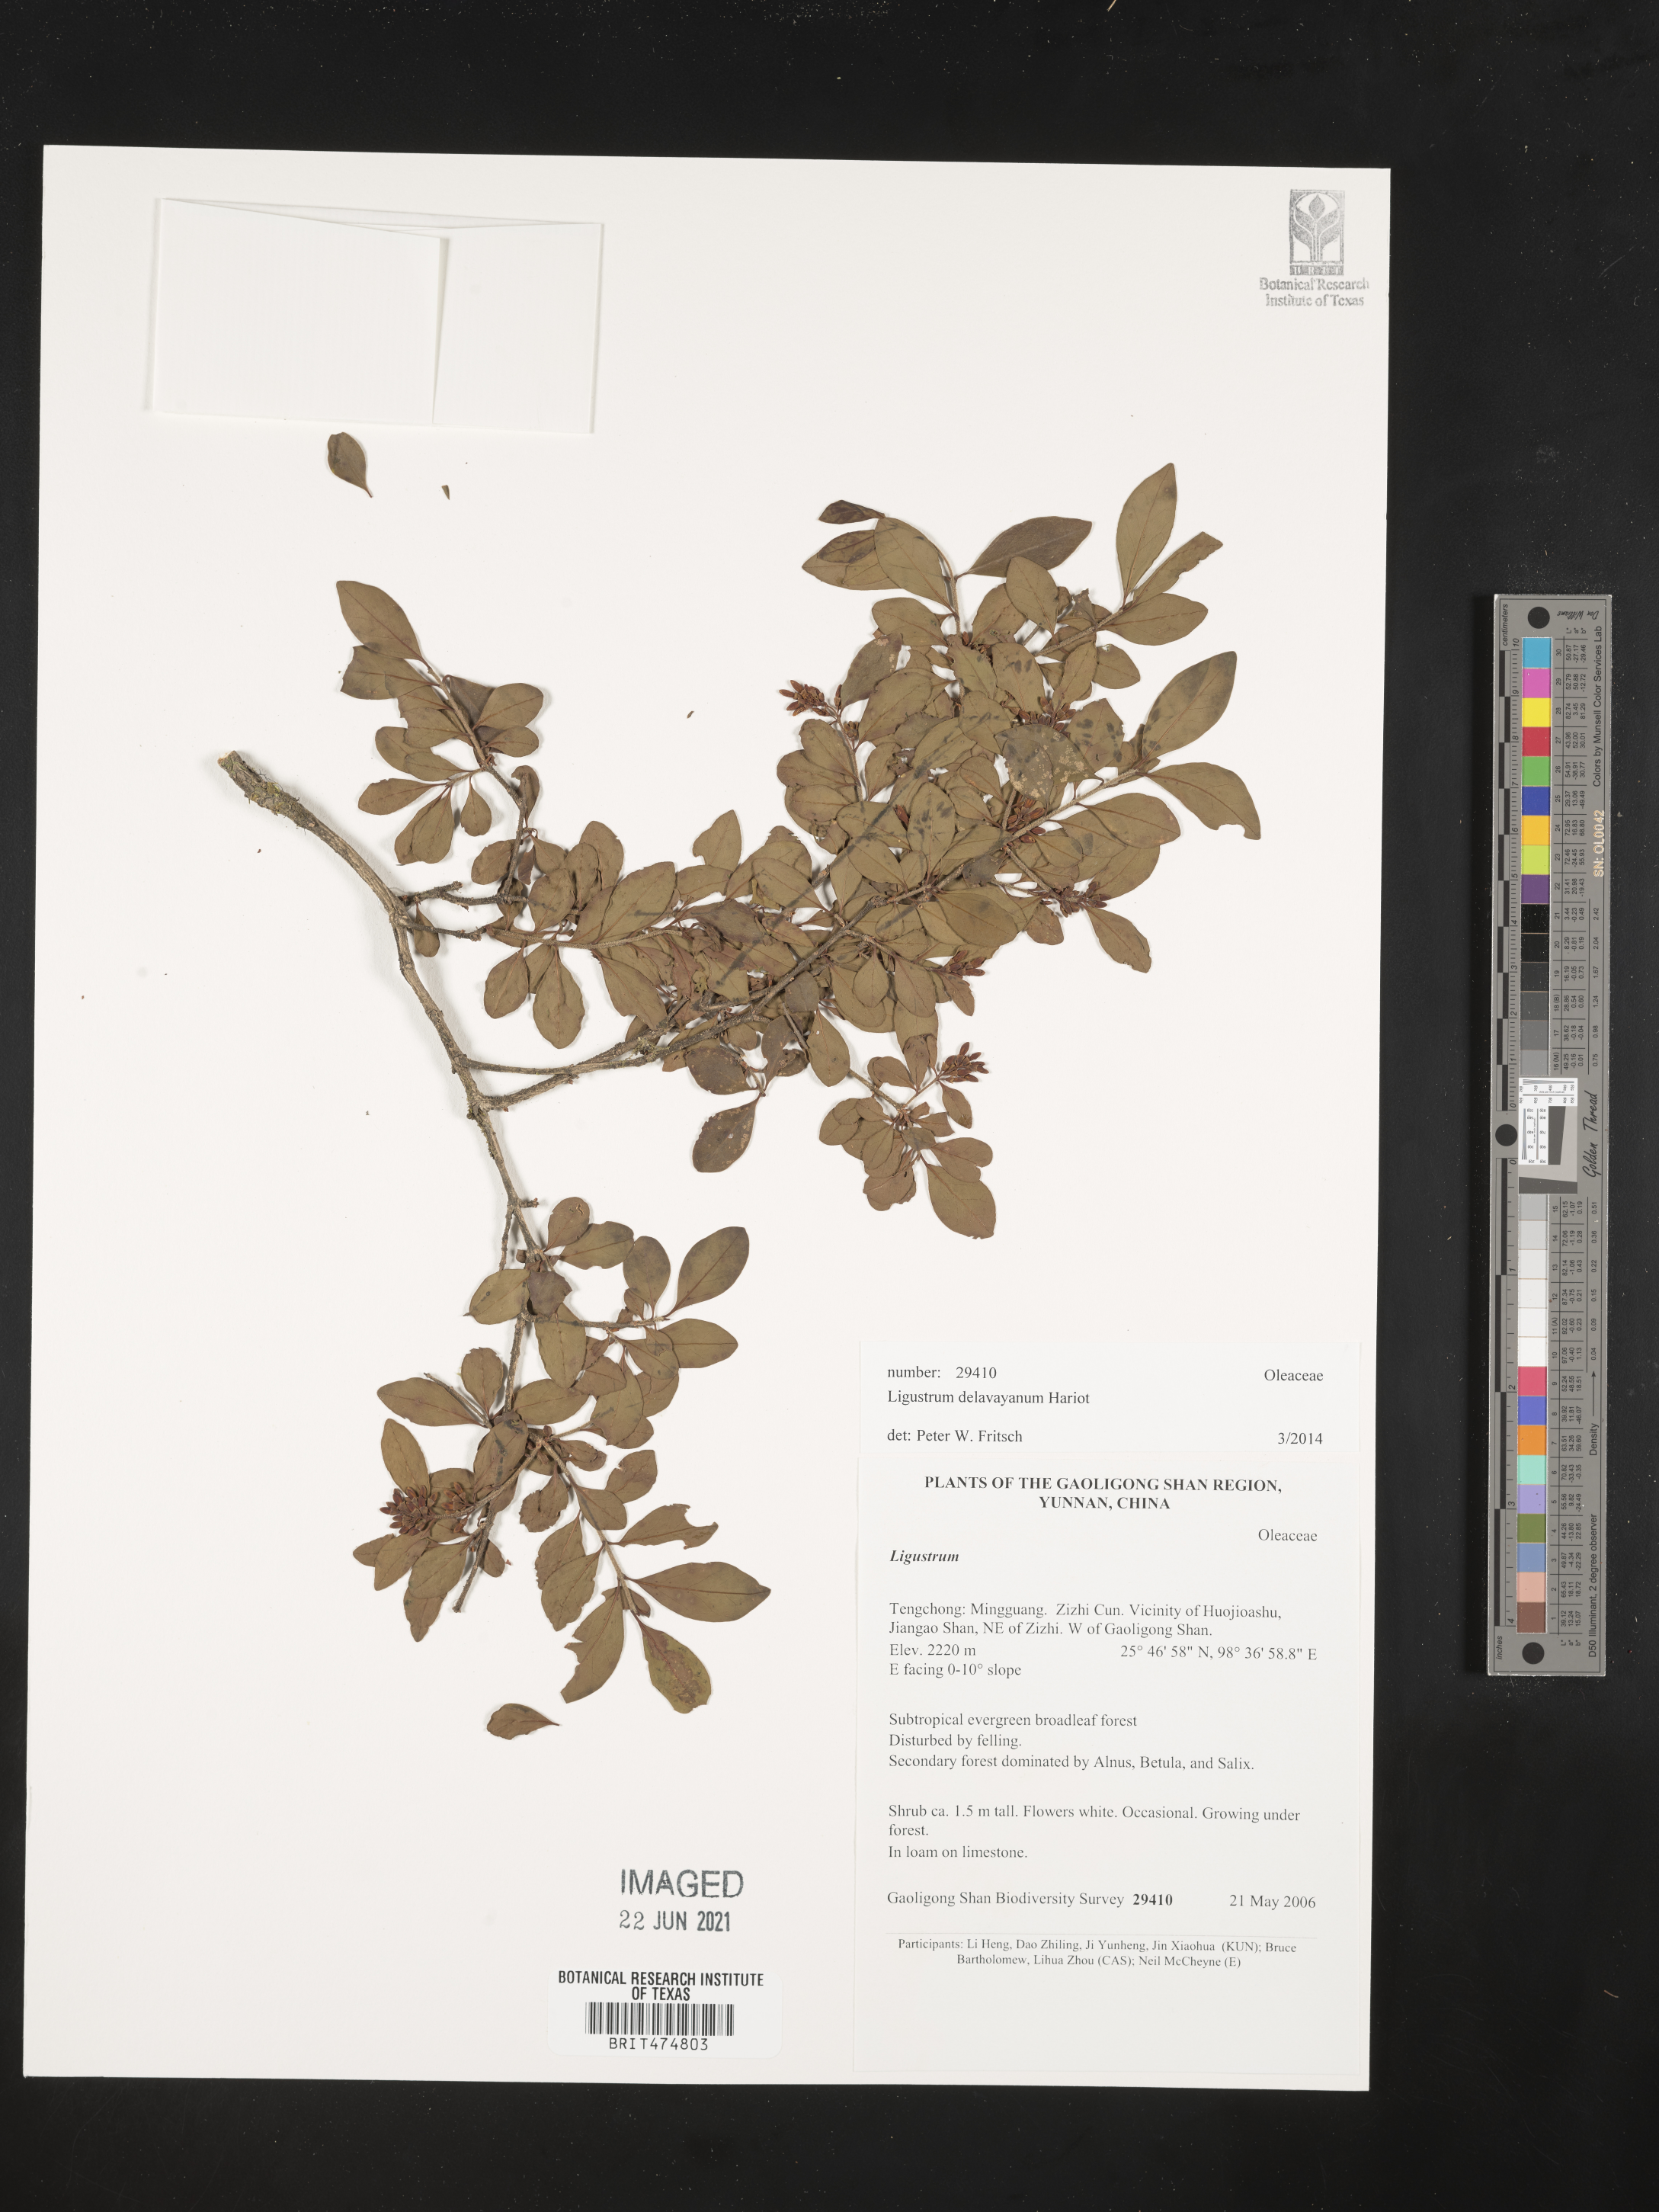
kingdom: Plantae
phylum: Tracheophyta
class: Magnoliopsida
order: Lamiales
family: Oleaceae
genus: Ligustrum
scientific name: Ligustrum delavayanum
